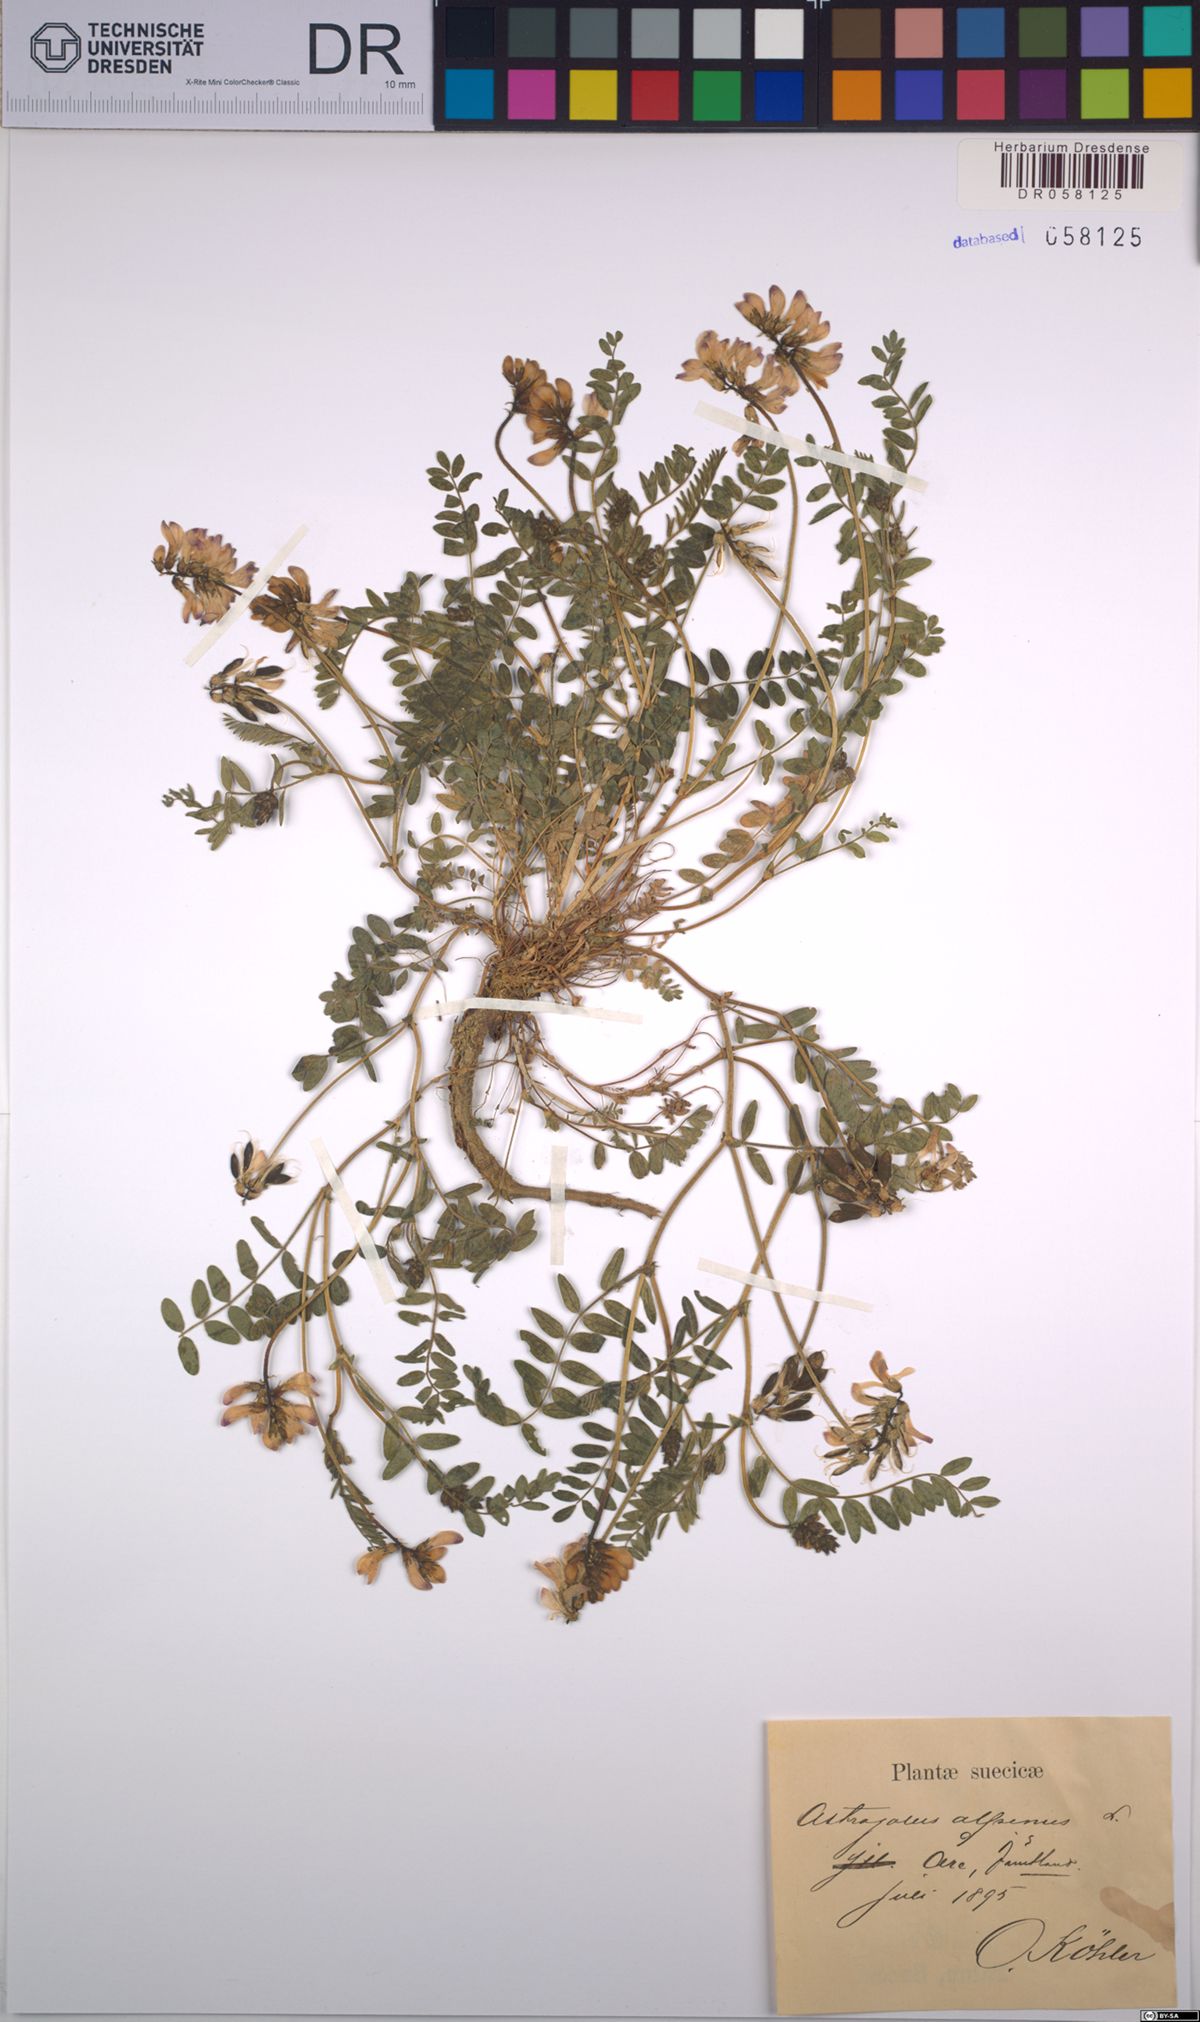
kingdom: Plantae
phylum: Tracheophyta
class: Magnoliopsida
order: Fabales
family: Fabaceae
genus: Astragalus
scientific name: Astragalus alpinus
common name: Alpine milk-vetch
